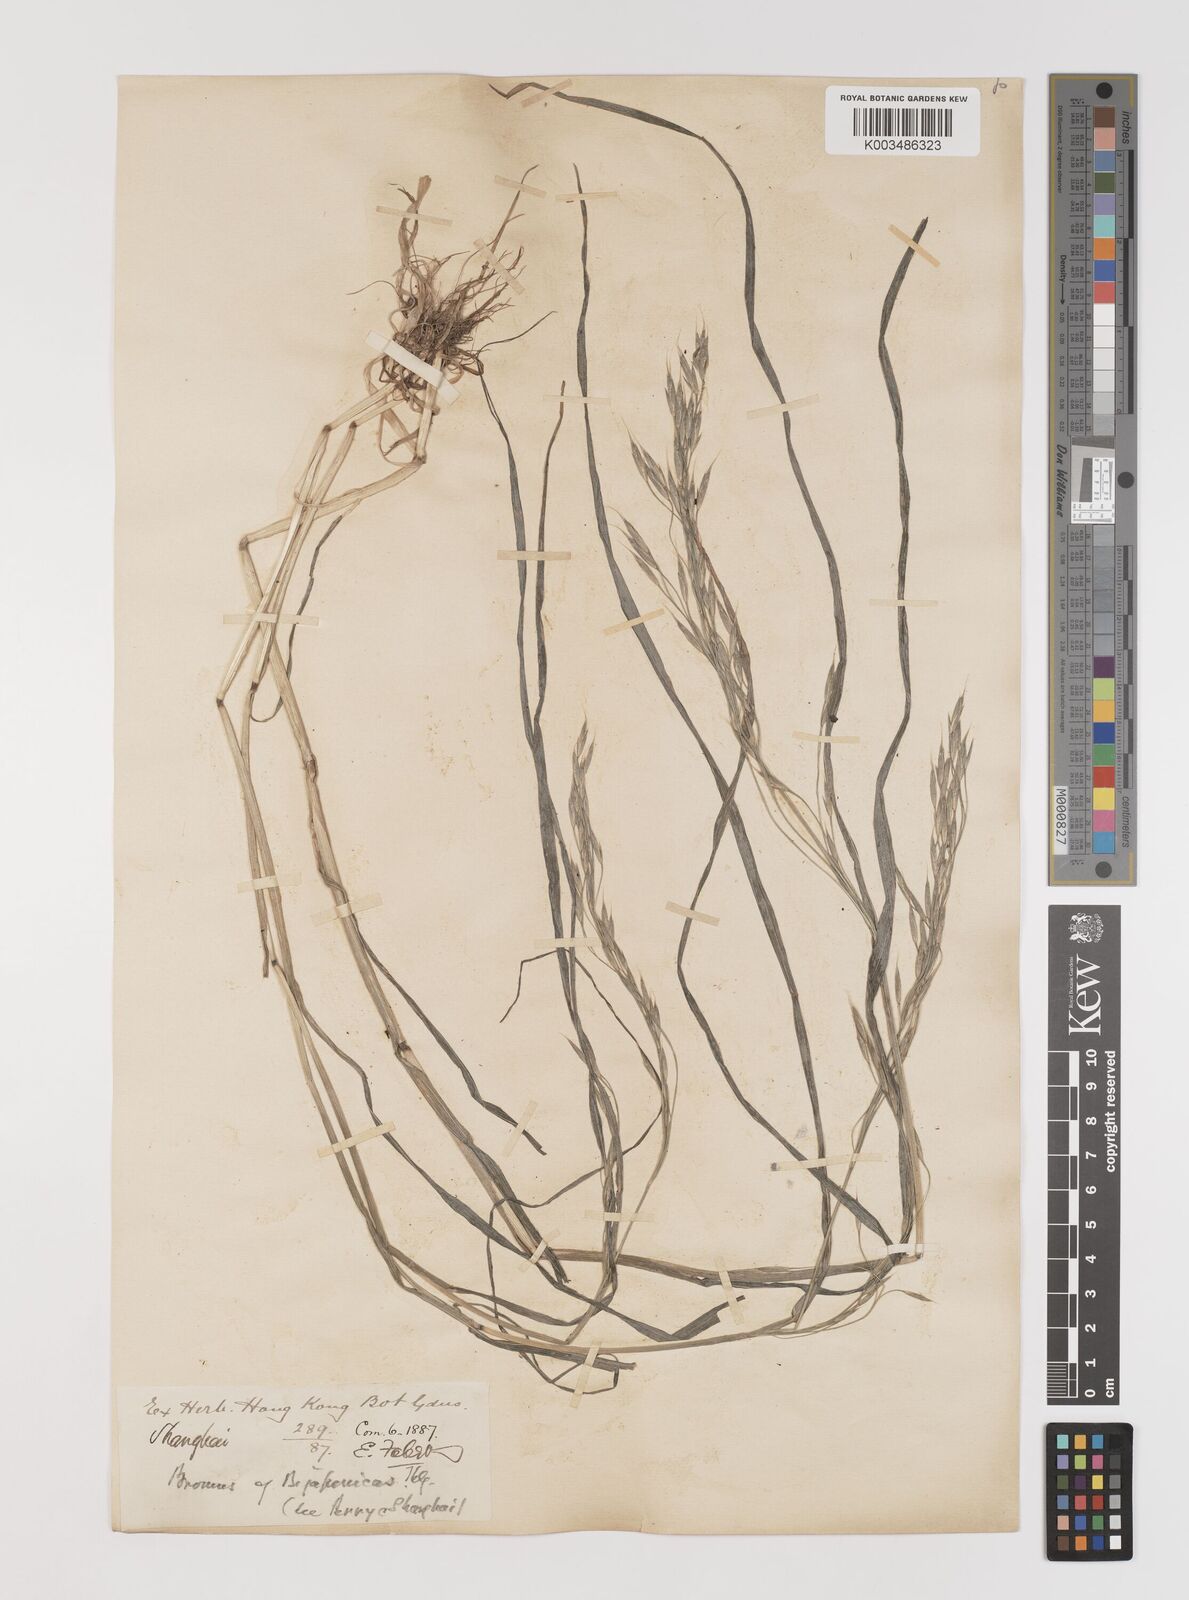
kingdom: Plantae
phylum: Tracheophyta
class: Liliopsida
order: Poales
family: Poaceae
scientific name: Poaceae
